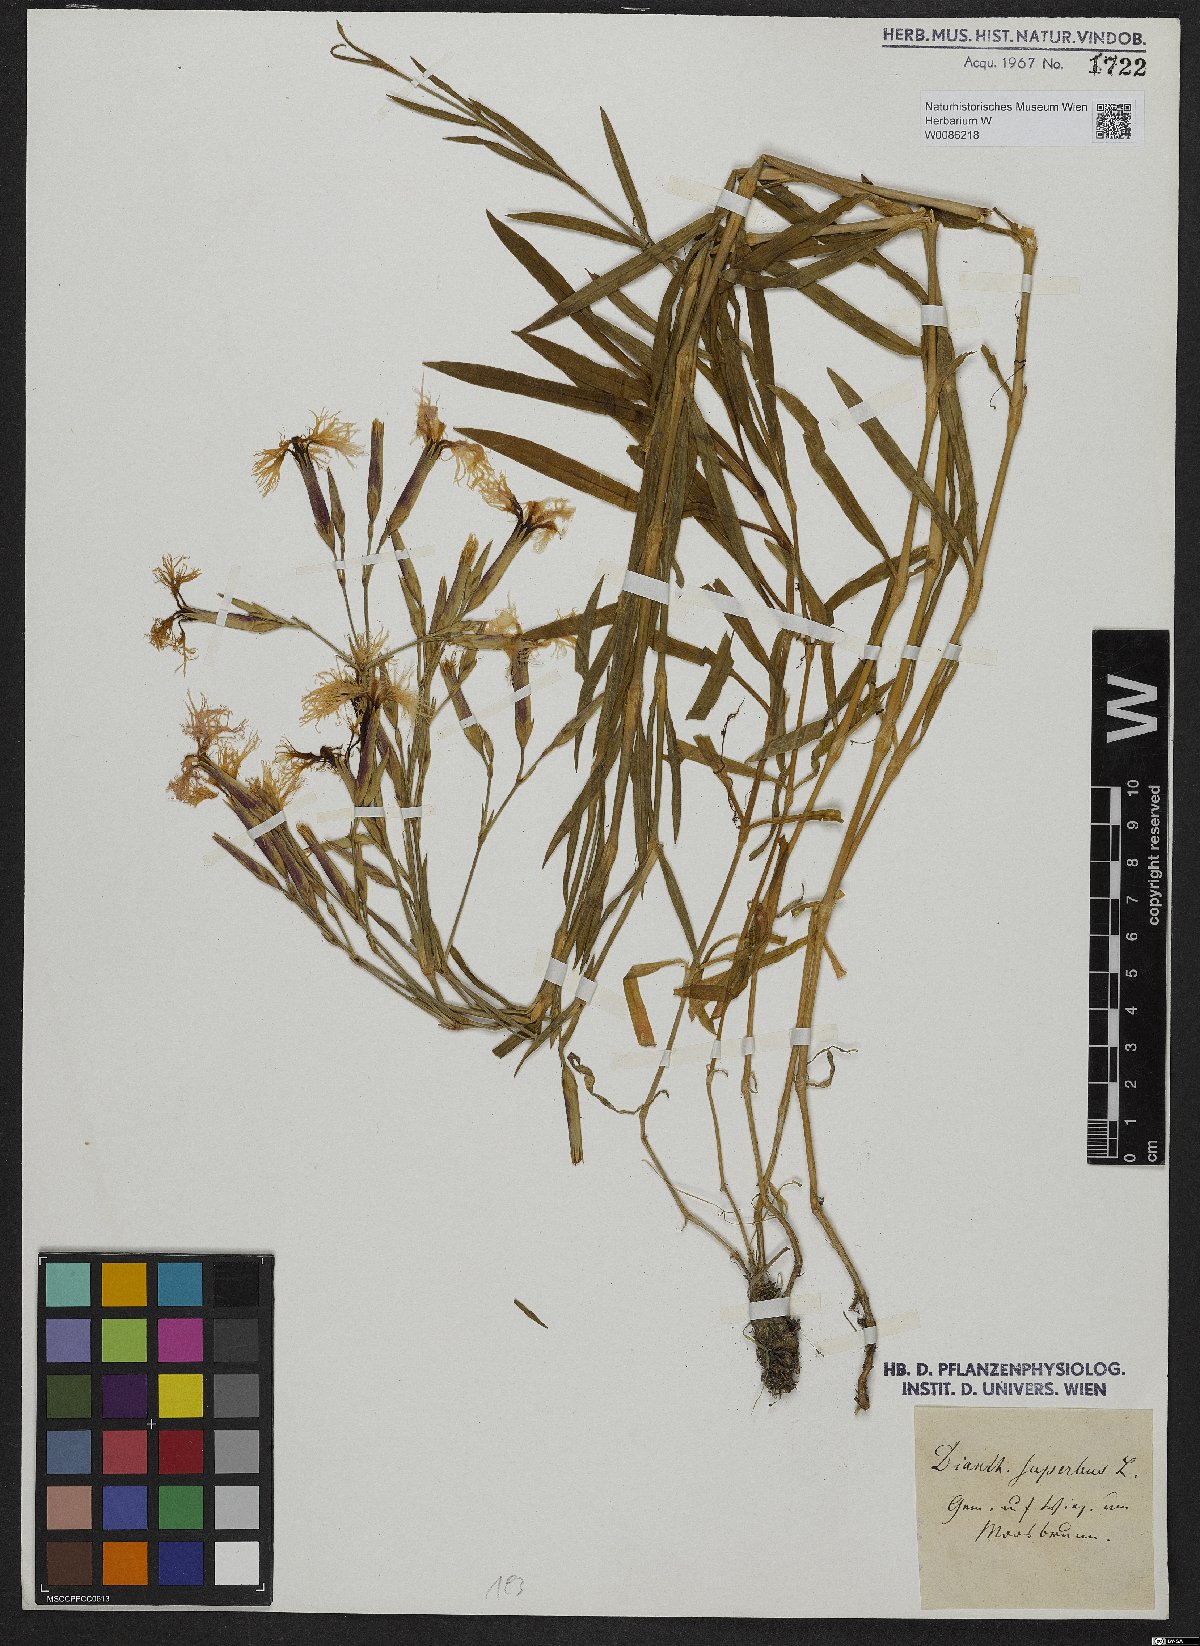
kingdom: Plantae
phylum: Tracheophyta
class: Magnoliopsida
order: Caryophyllales
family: Caryophyllaceae
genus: Dianthus
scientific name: Dianthus superbus
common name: Fringed pink
